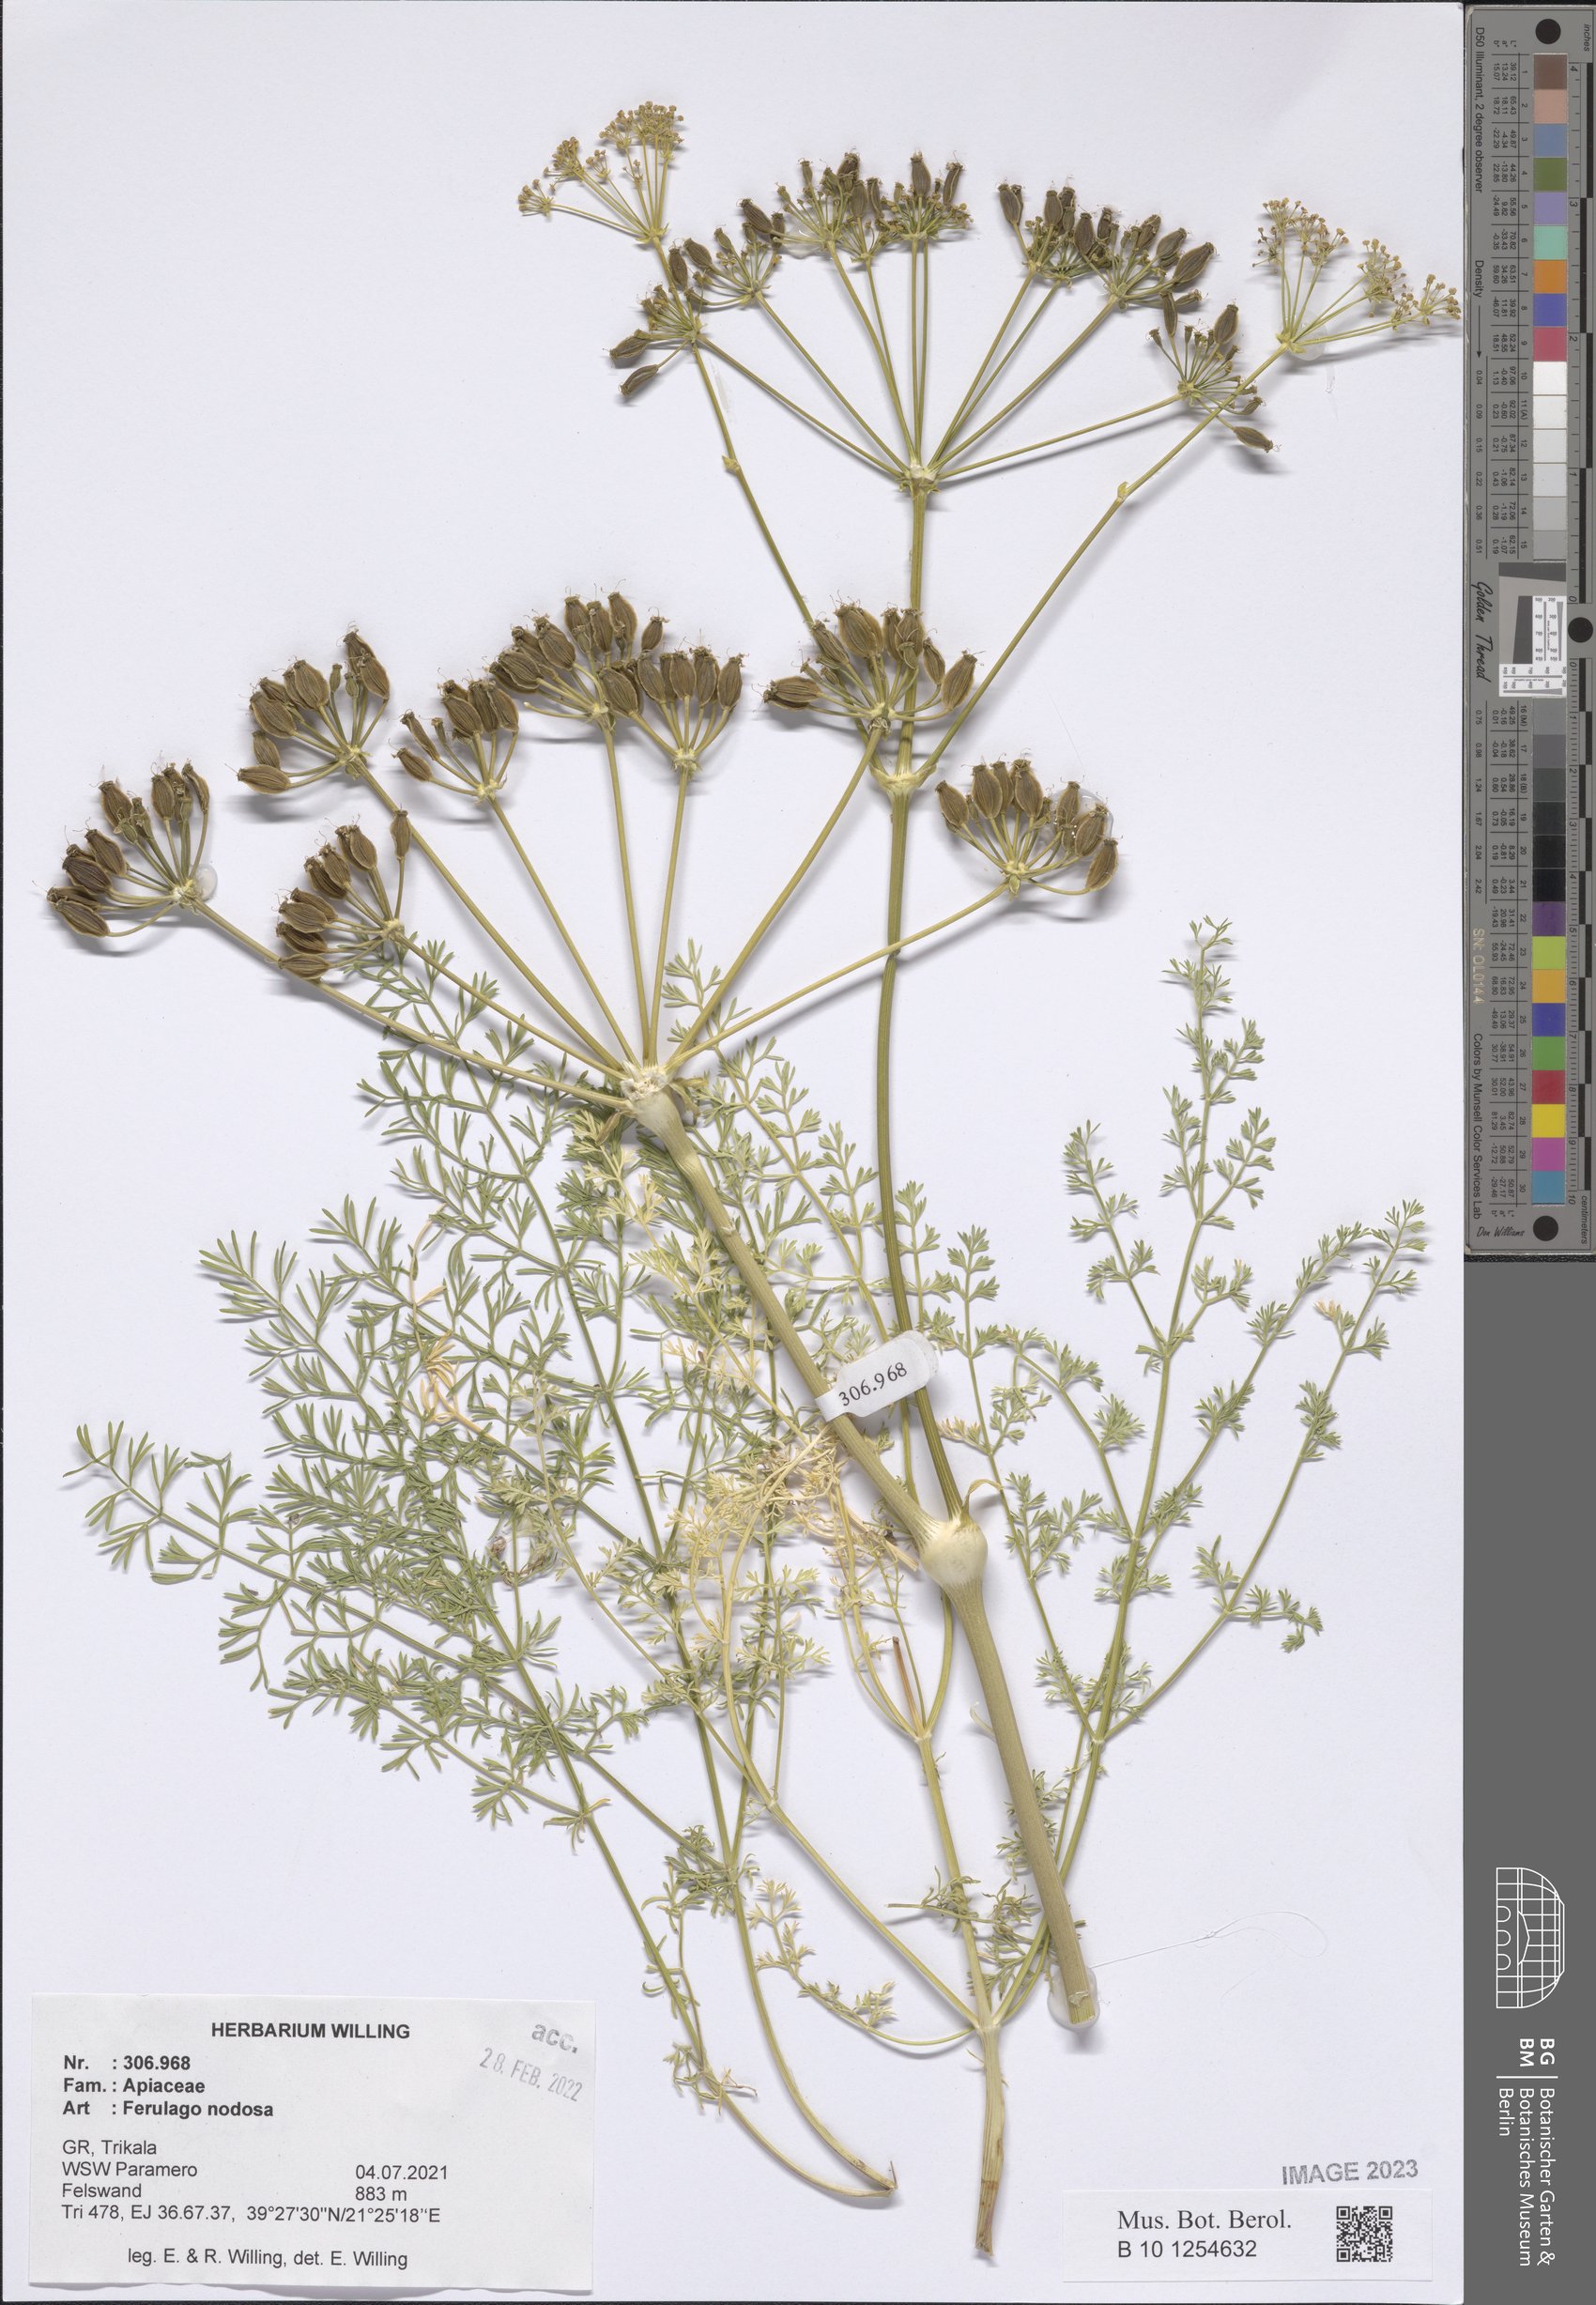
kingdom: Plantae
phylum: Tracheophyta
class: Magnoliopsida
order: Apiales
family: Apiaceae
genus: Ferulago
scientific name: Ferulago nodosa
